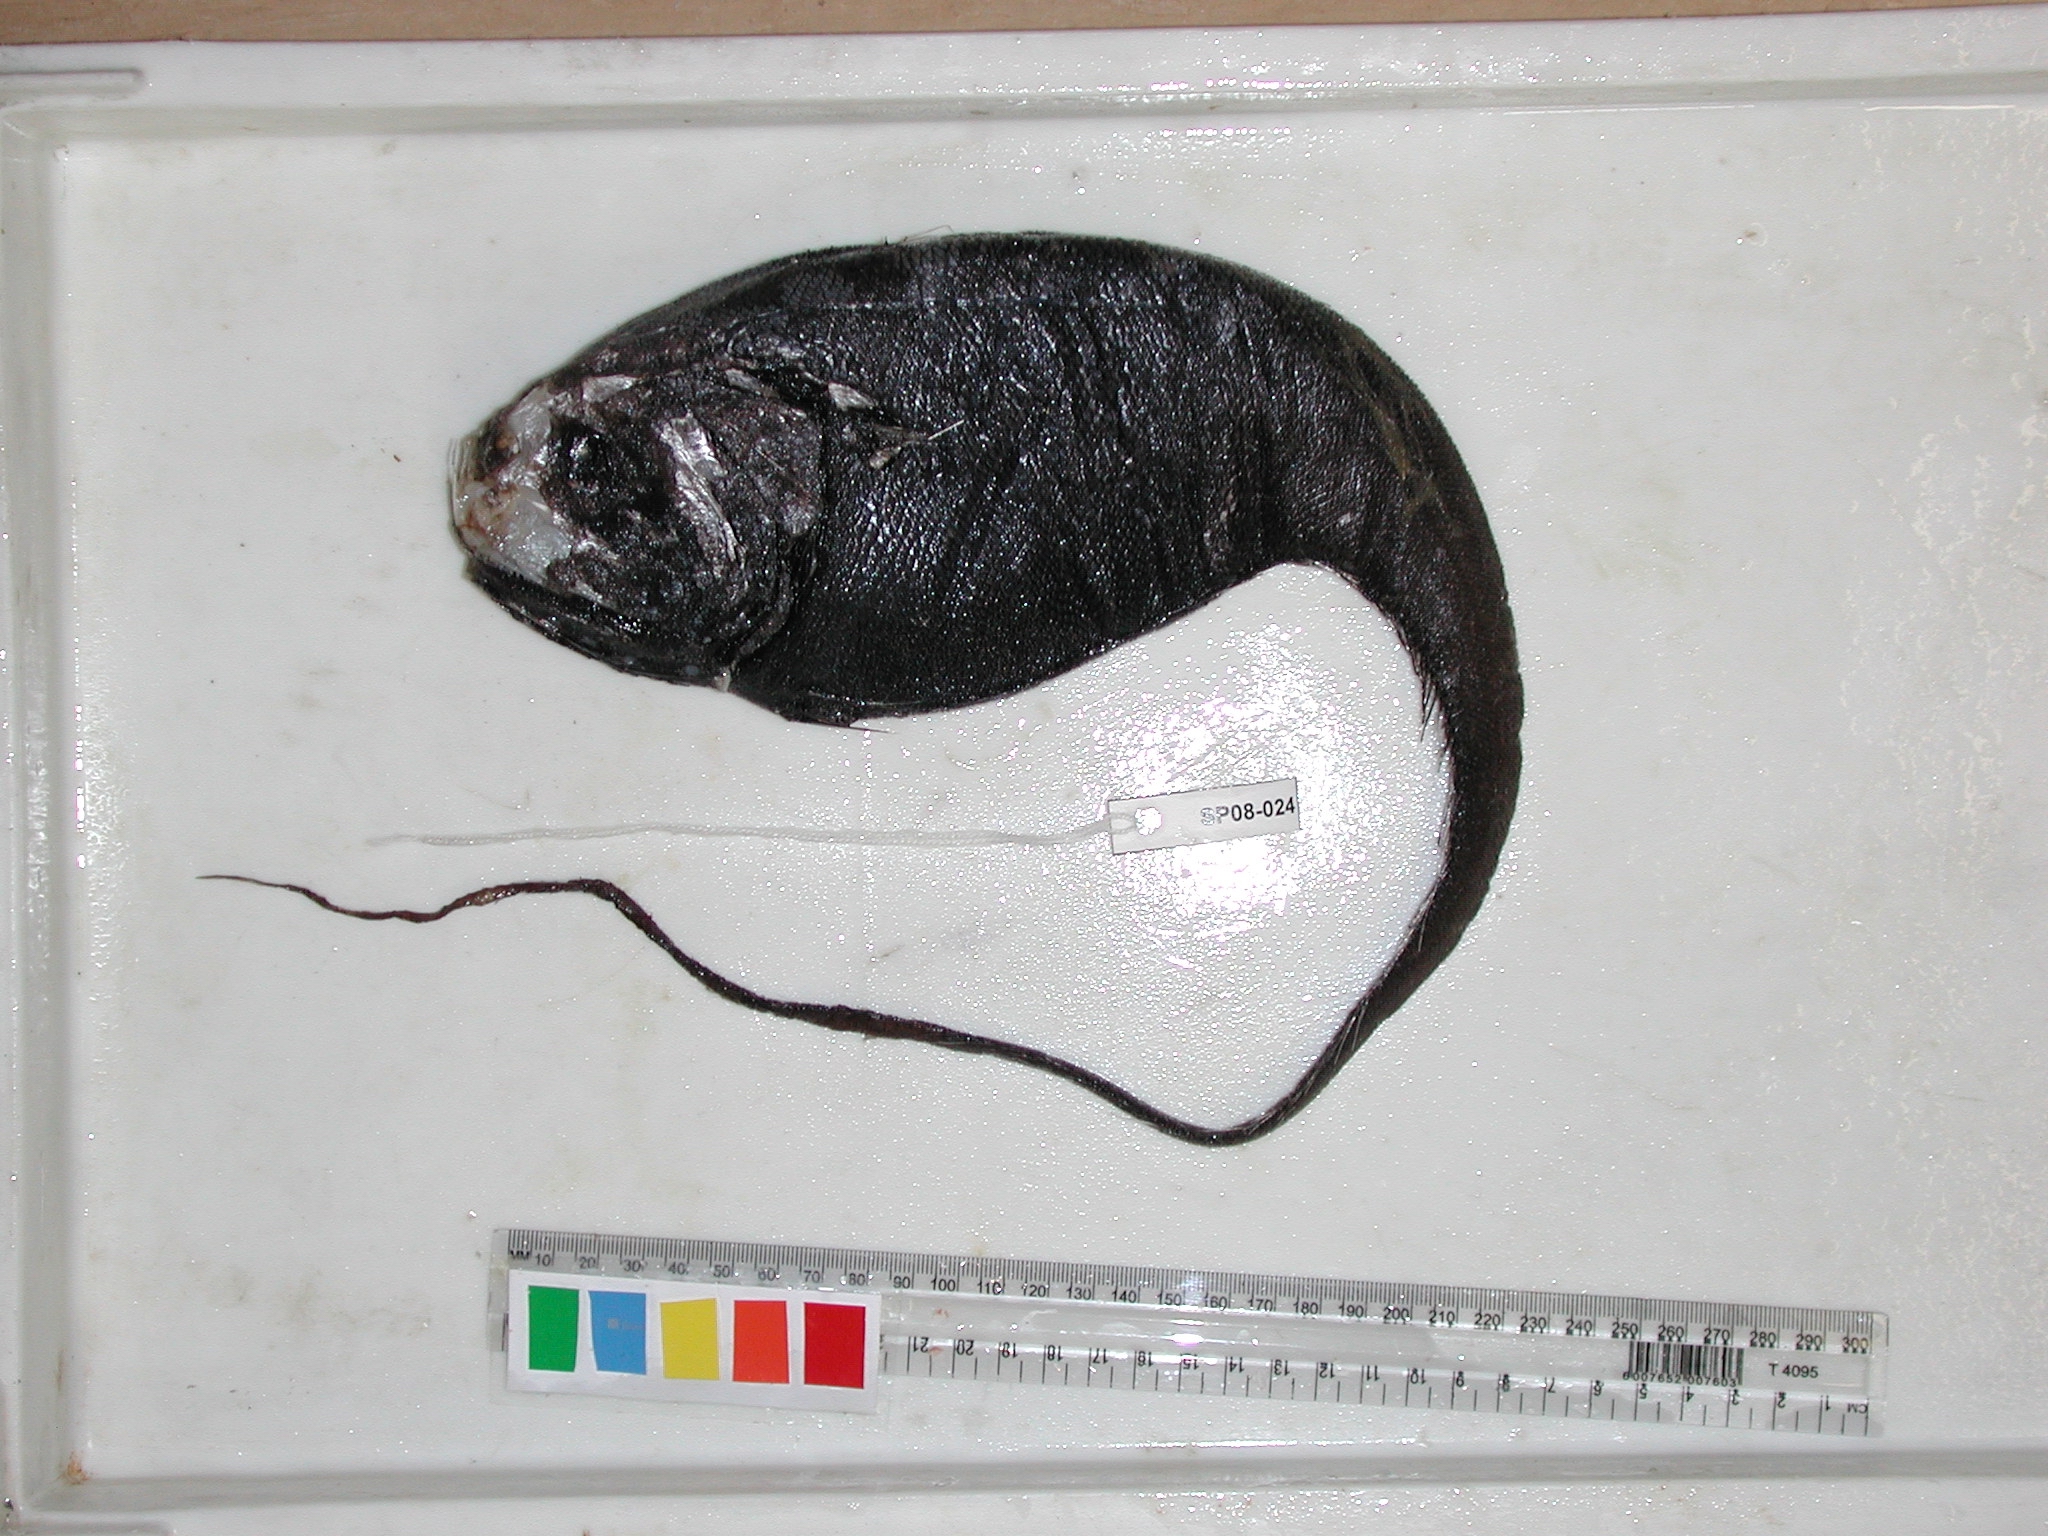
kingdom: Animalia
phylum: Chordata
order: Gadiformes
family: Macrouridae
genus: Odontomacrurus
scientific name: Odontomacrurus
